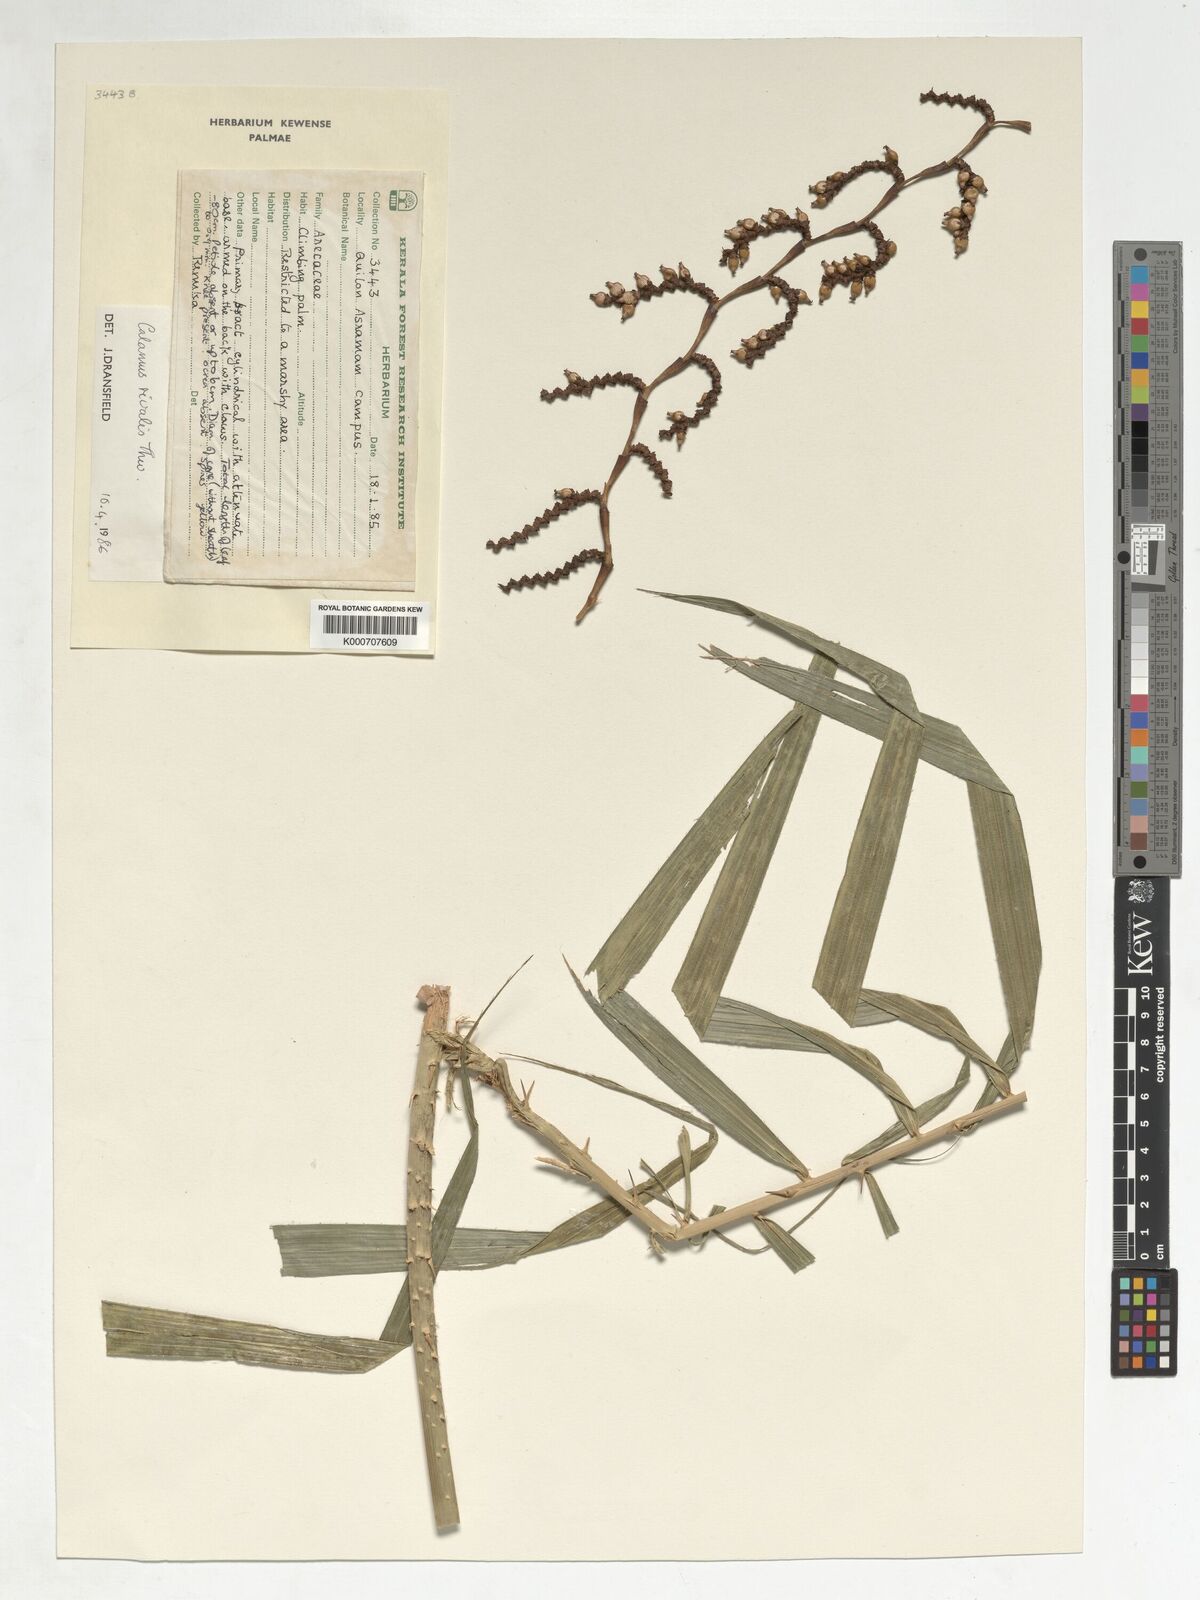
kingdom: Plantae
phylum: Tracheophyta
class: Liliopsida
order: Arecales
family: Arecaceae
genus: Calamus
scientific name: Calamus metzianus
